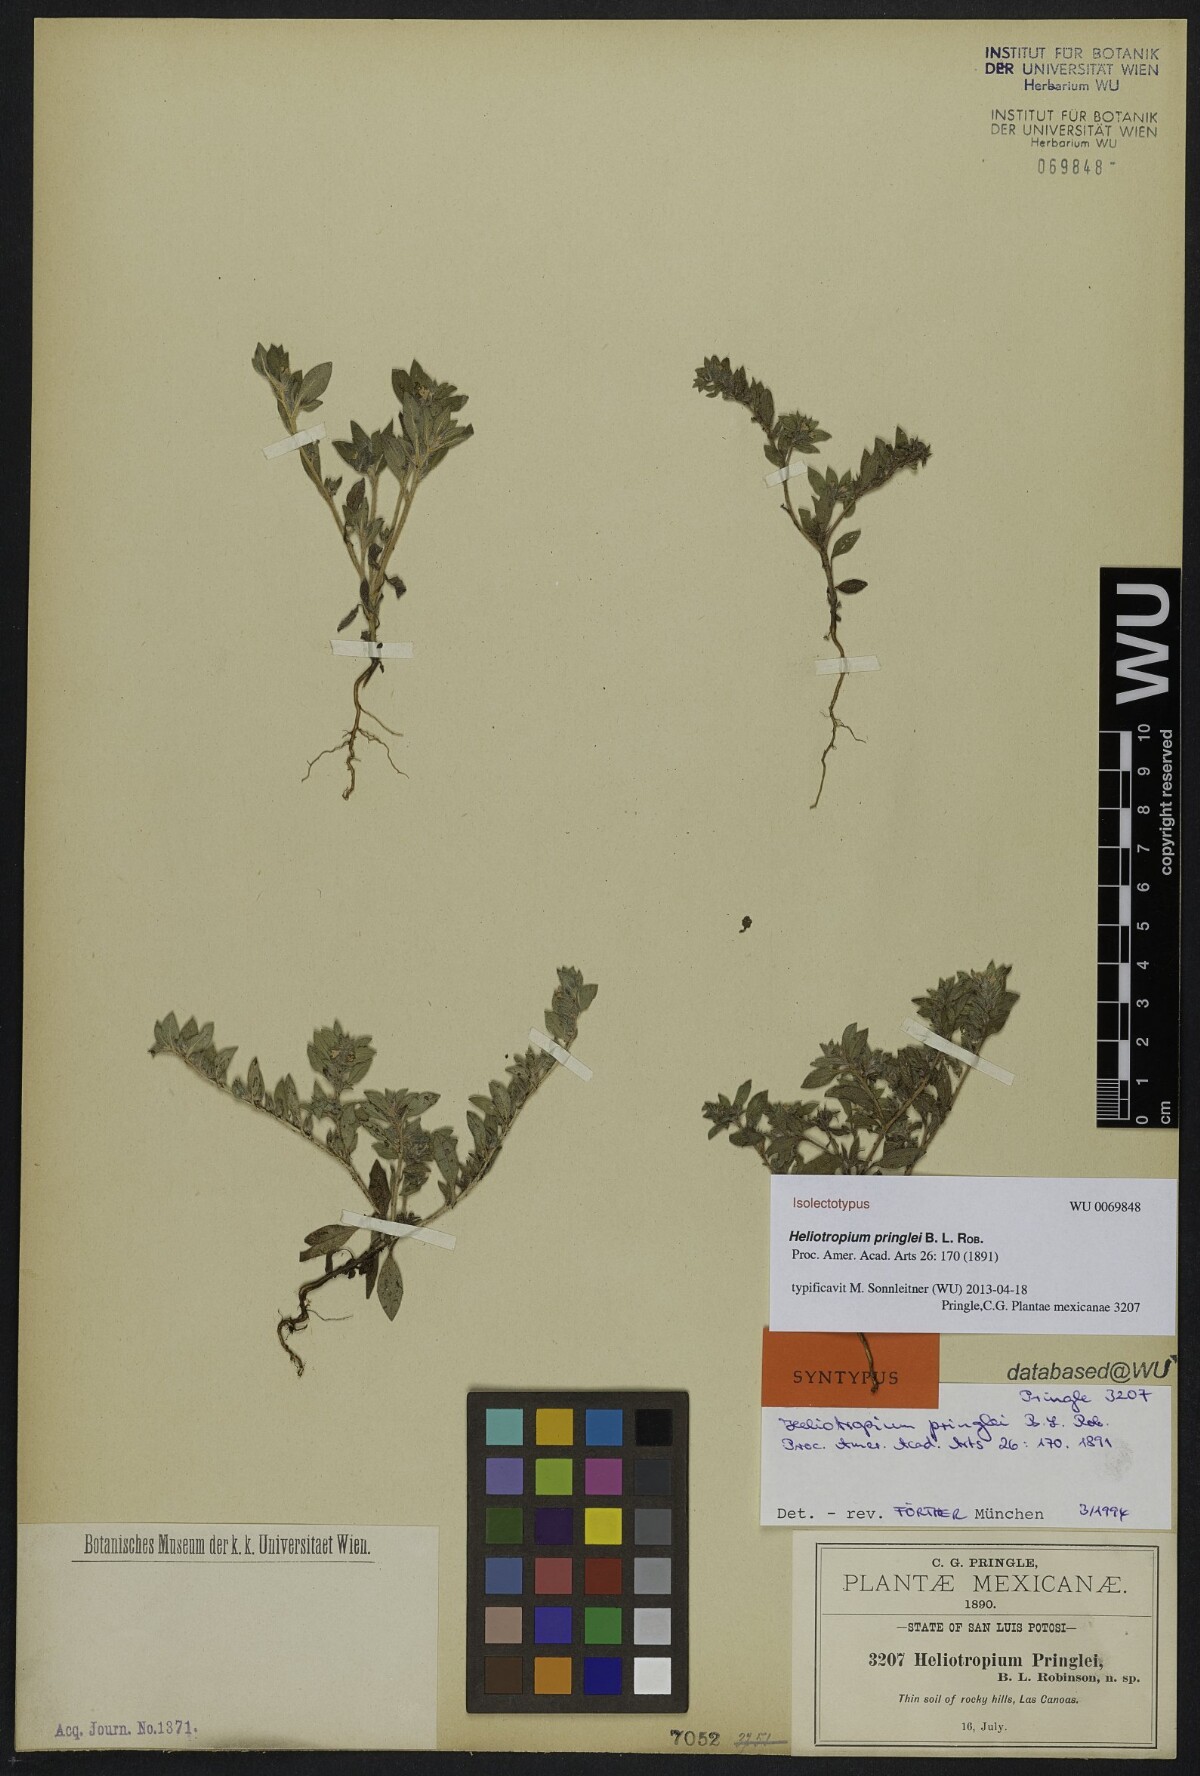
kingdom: Plantae
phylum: Tracheophyta
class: Magnoliopsida
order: Boraginales
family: Heliotropiaceae
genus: Euploca
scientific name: Euploca pringlei
